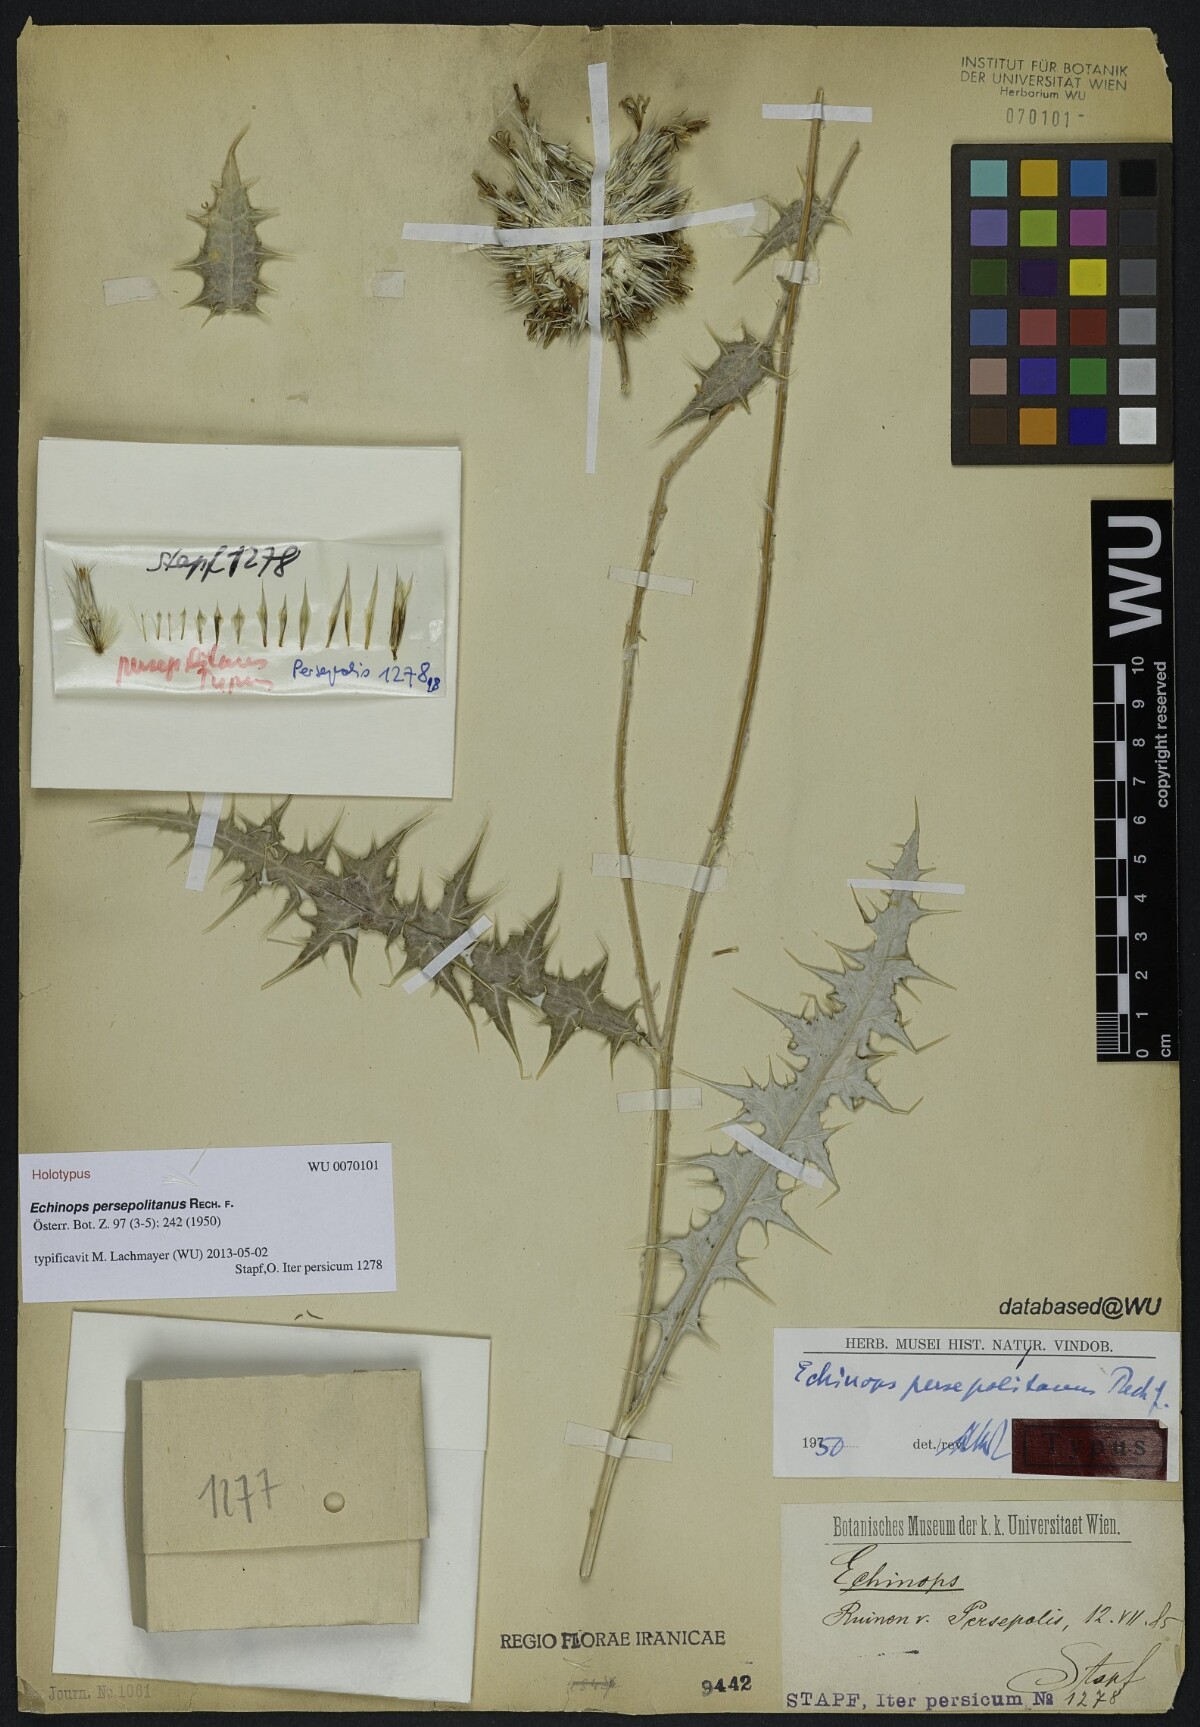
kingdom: Plantae
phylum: Tracheophyta
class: Magnoliopsida
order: Asterales
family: Asteraceae
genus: Echinops
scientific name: Echinops hebelepis
